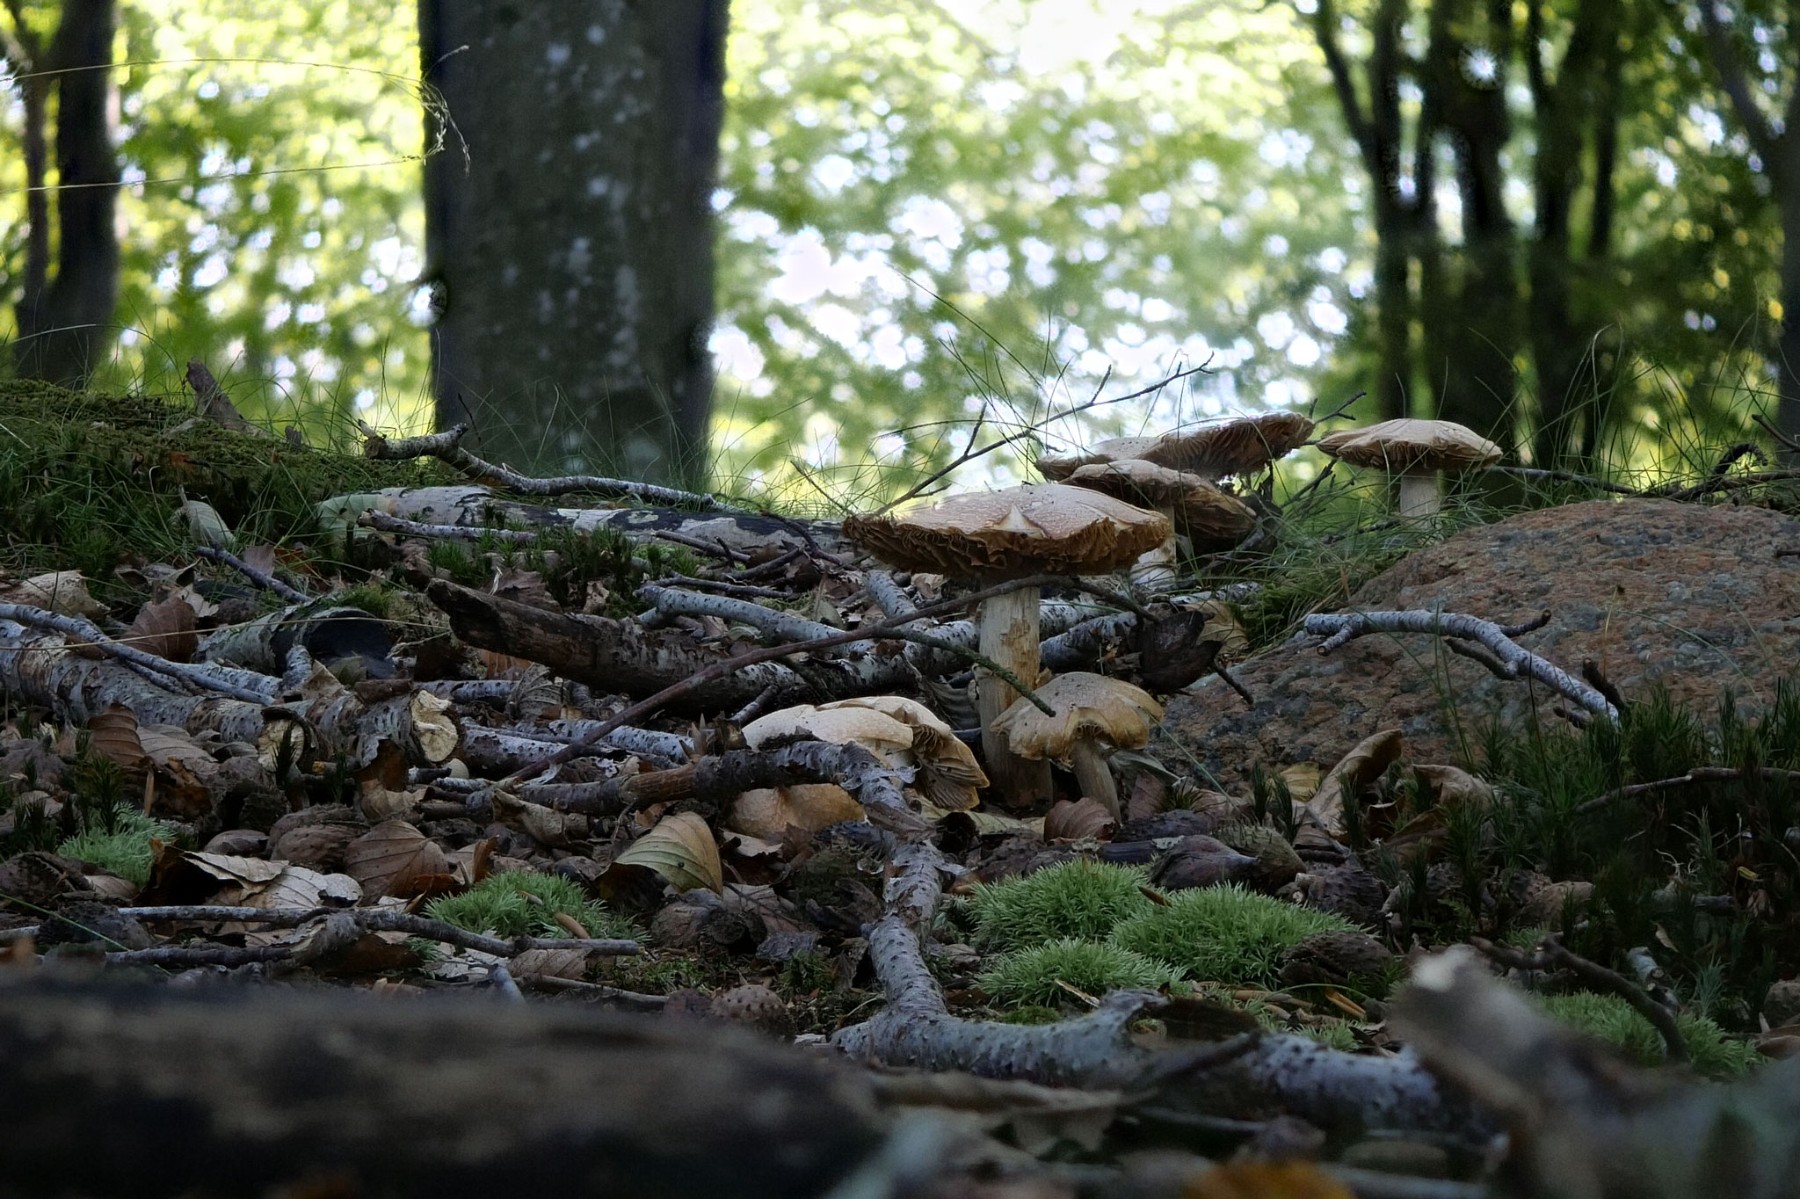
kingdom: Fungi
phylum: Basidiomycota
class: Agaricomycetes
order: Agaricales
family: Cortinariaceae
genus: Cortinarius
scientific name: Cortinarius caperatus
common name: klidhat
